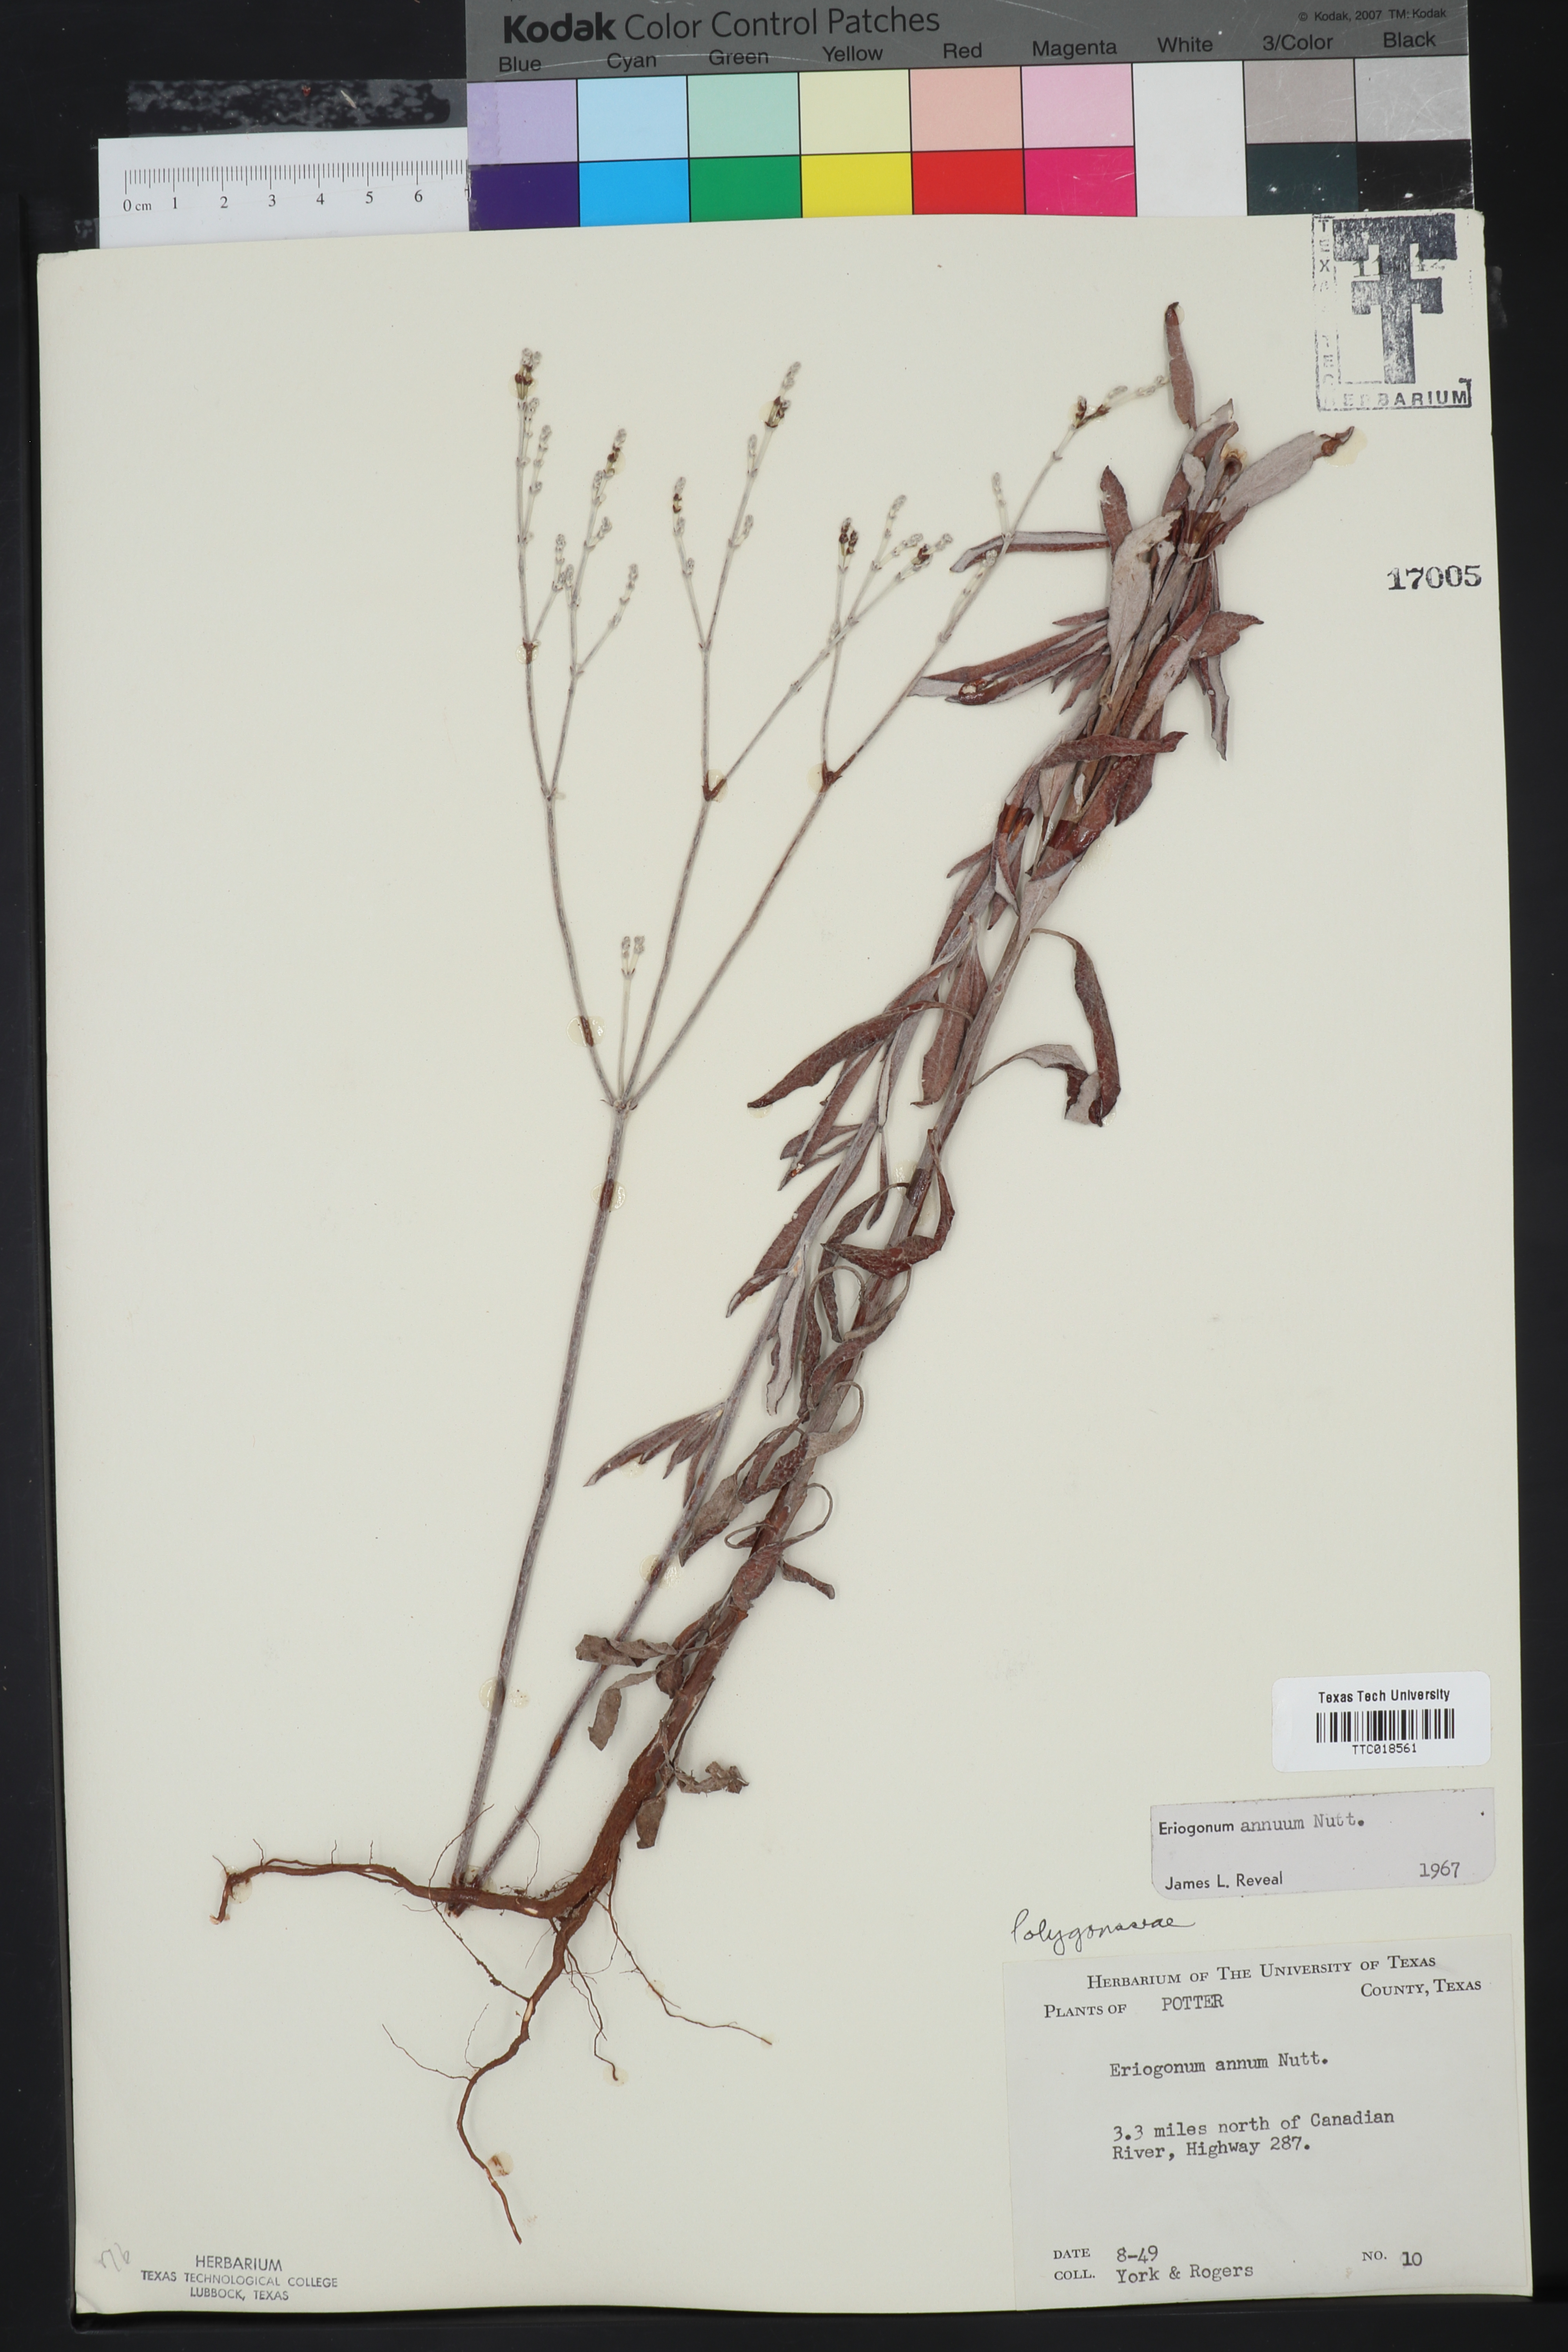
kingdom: Plantae
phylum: Tracheophyta
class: Magnoliopsida
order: Caryophyllales
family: Polygonaceae
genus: Eriogonum
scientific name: Eriogonum annuum
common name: Annual wild buckwheat
